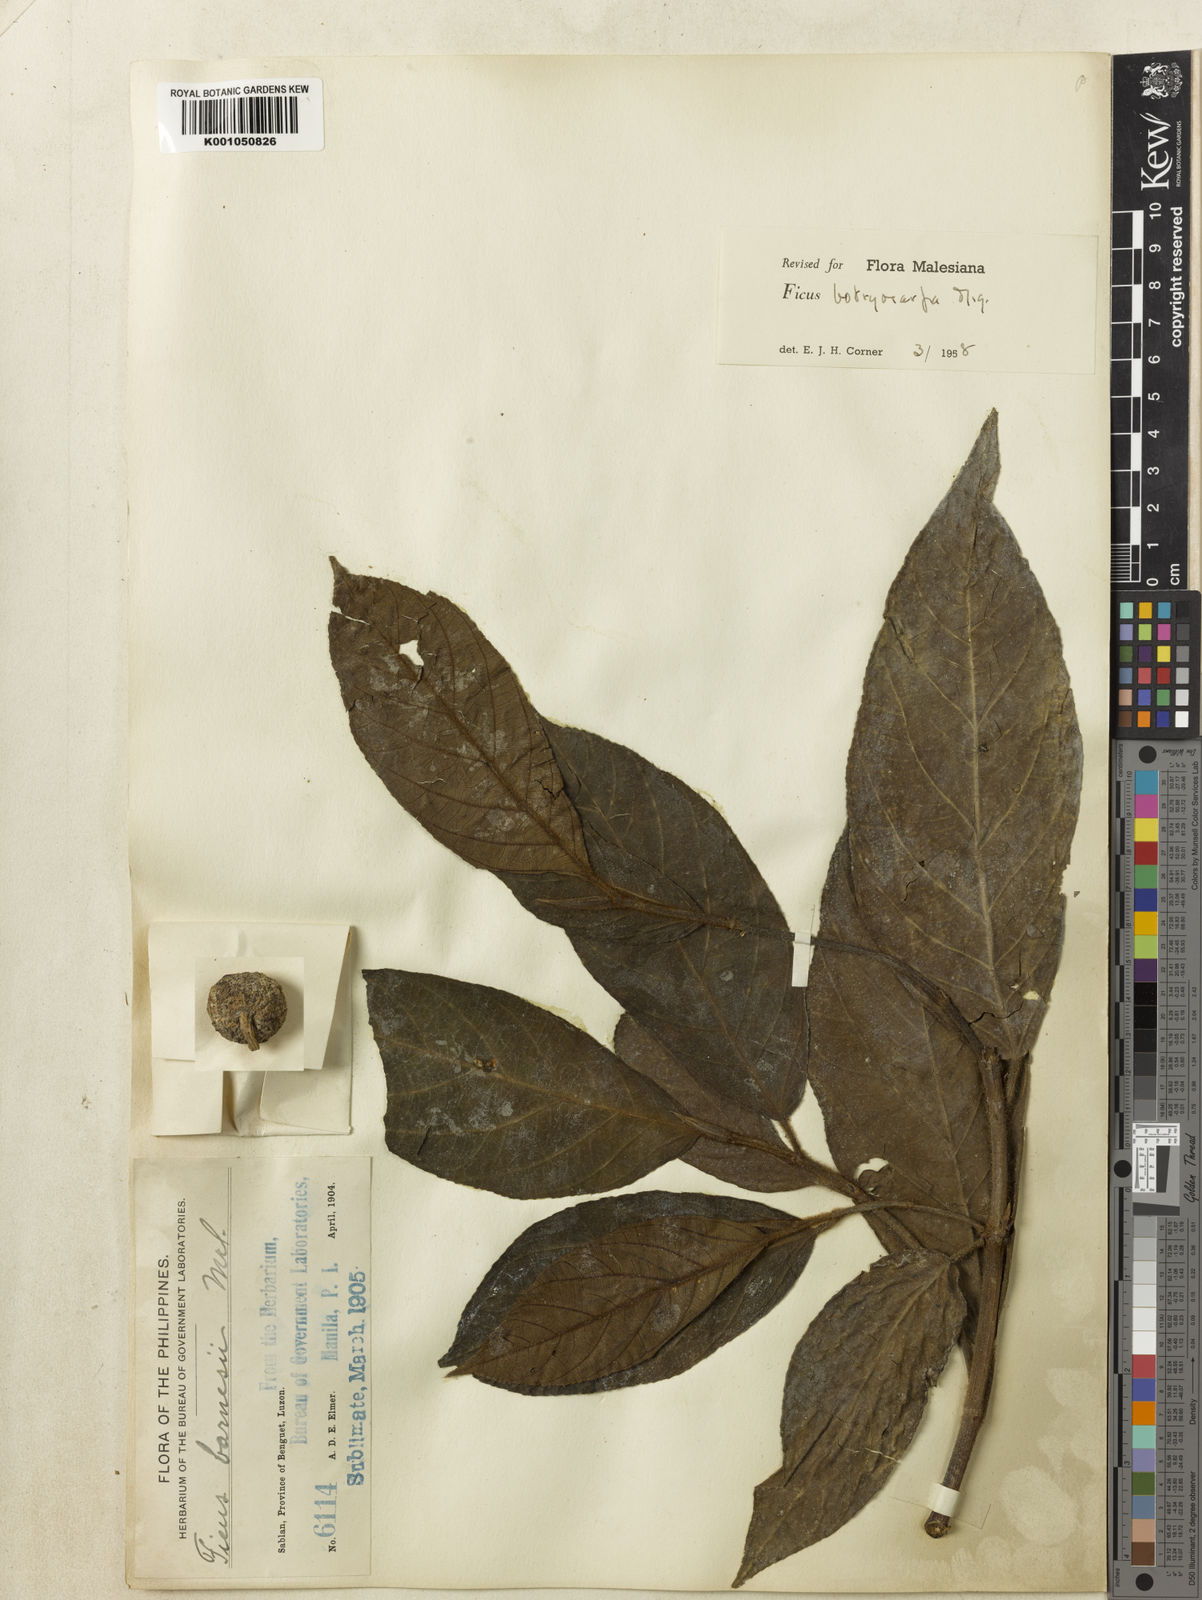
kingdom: Plantae
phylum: Tracheophyta
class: Magnoliopsida
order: Rosales
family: Moraceae
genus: Ficus
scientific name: Ficus botryocarpa
